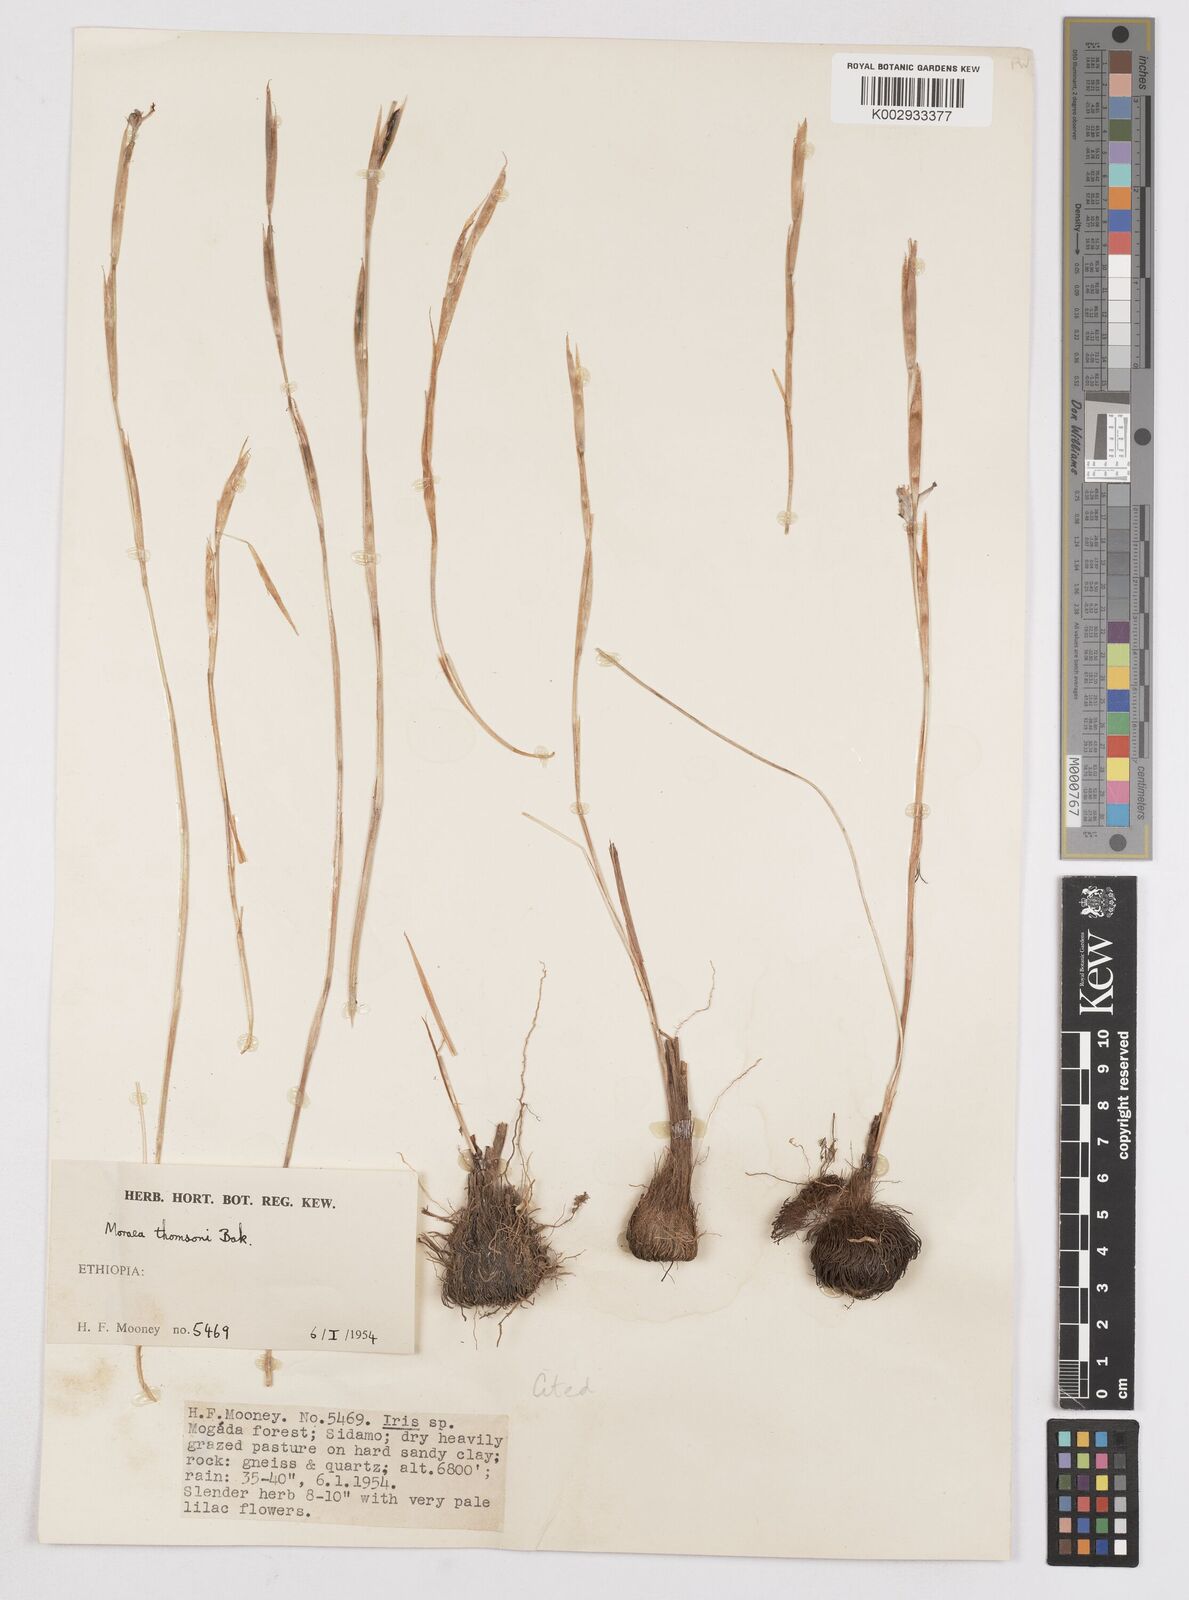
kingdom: Plantae
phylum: Tracheophyta
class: Liliopsida
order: Asparagales
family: Iridaceae
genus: Moraea
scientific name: Moraea thomsonii
